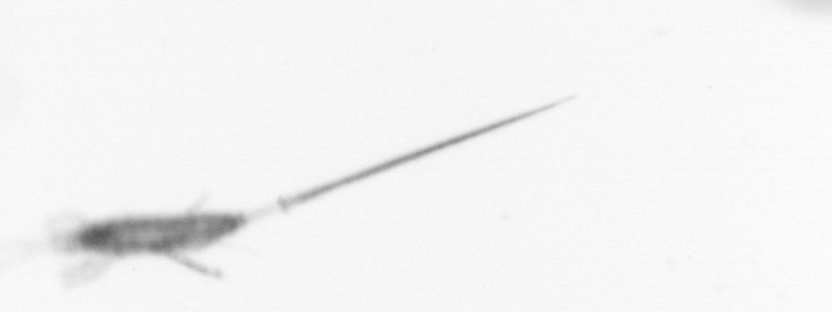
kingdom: Animalia
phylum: Arthropoda
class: Copepoda
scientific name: Copepoda
